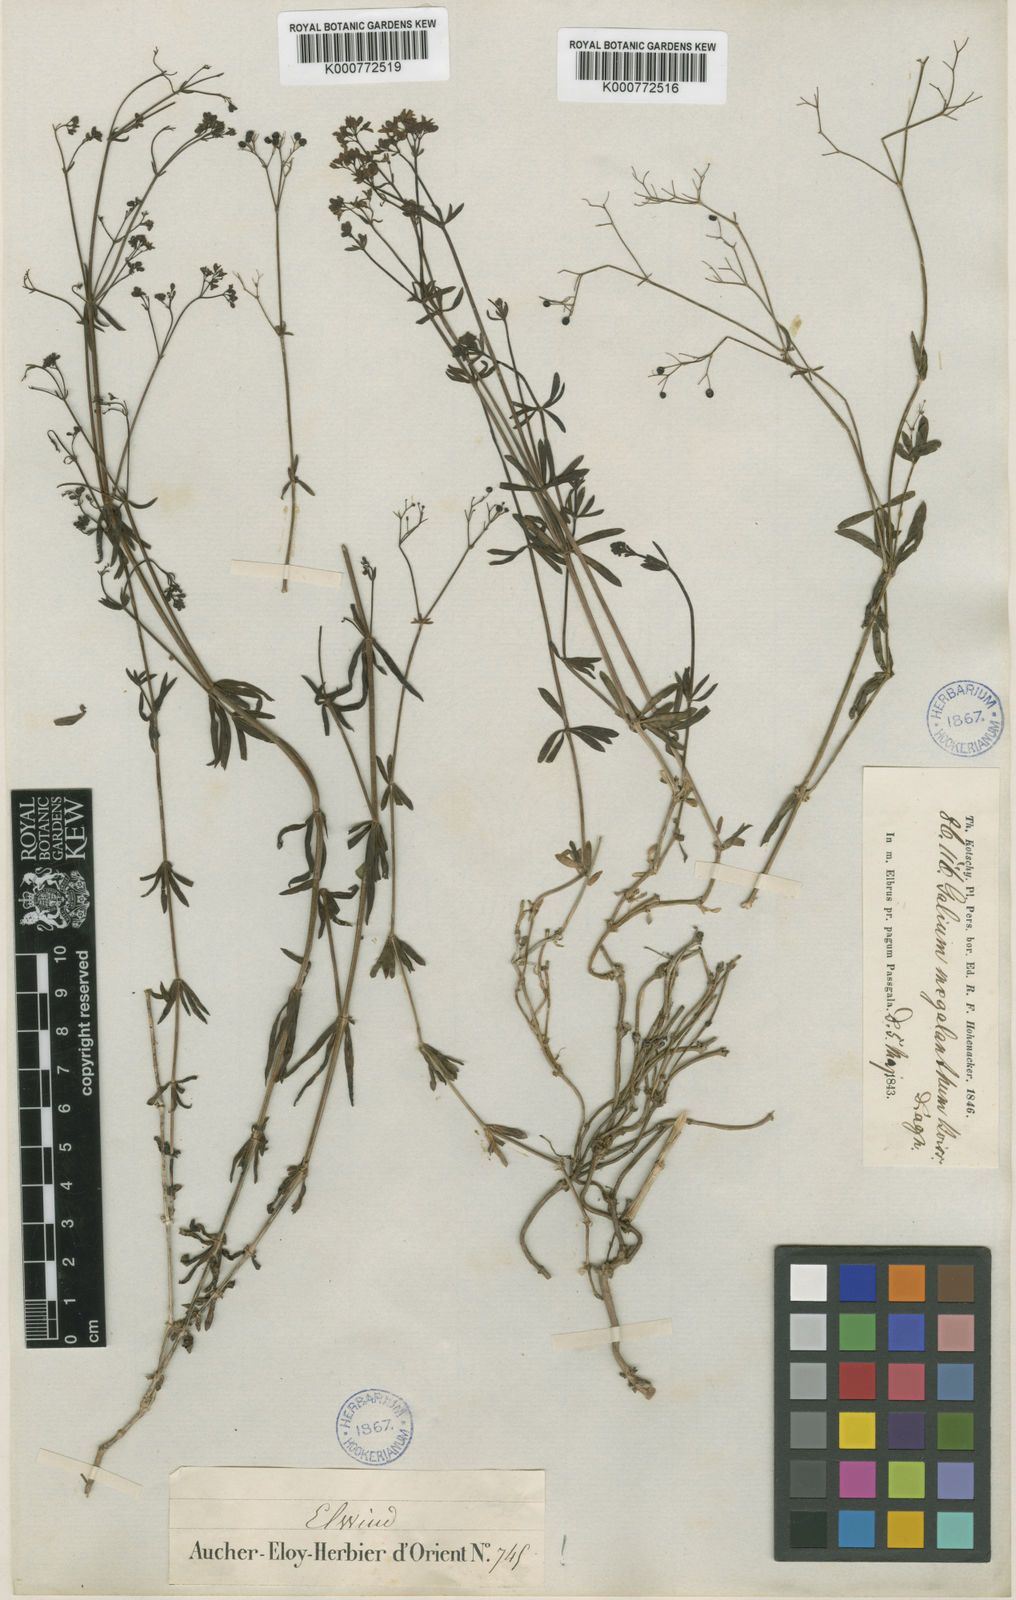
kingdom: Plantae
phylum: Tracheophyta
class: Magnoliopsida
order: Gentianales
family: Rubiaceae
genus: Galium
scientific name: Galium subvelutinum
